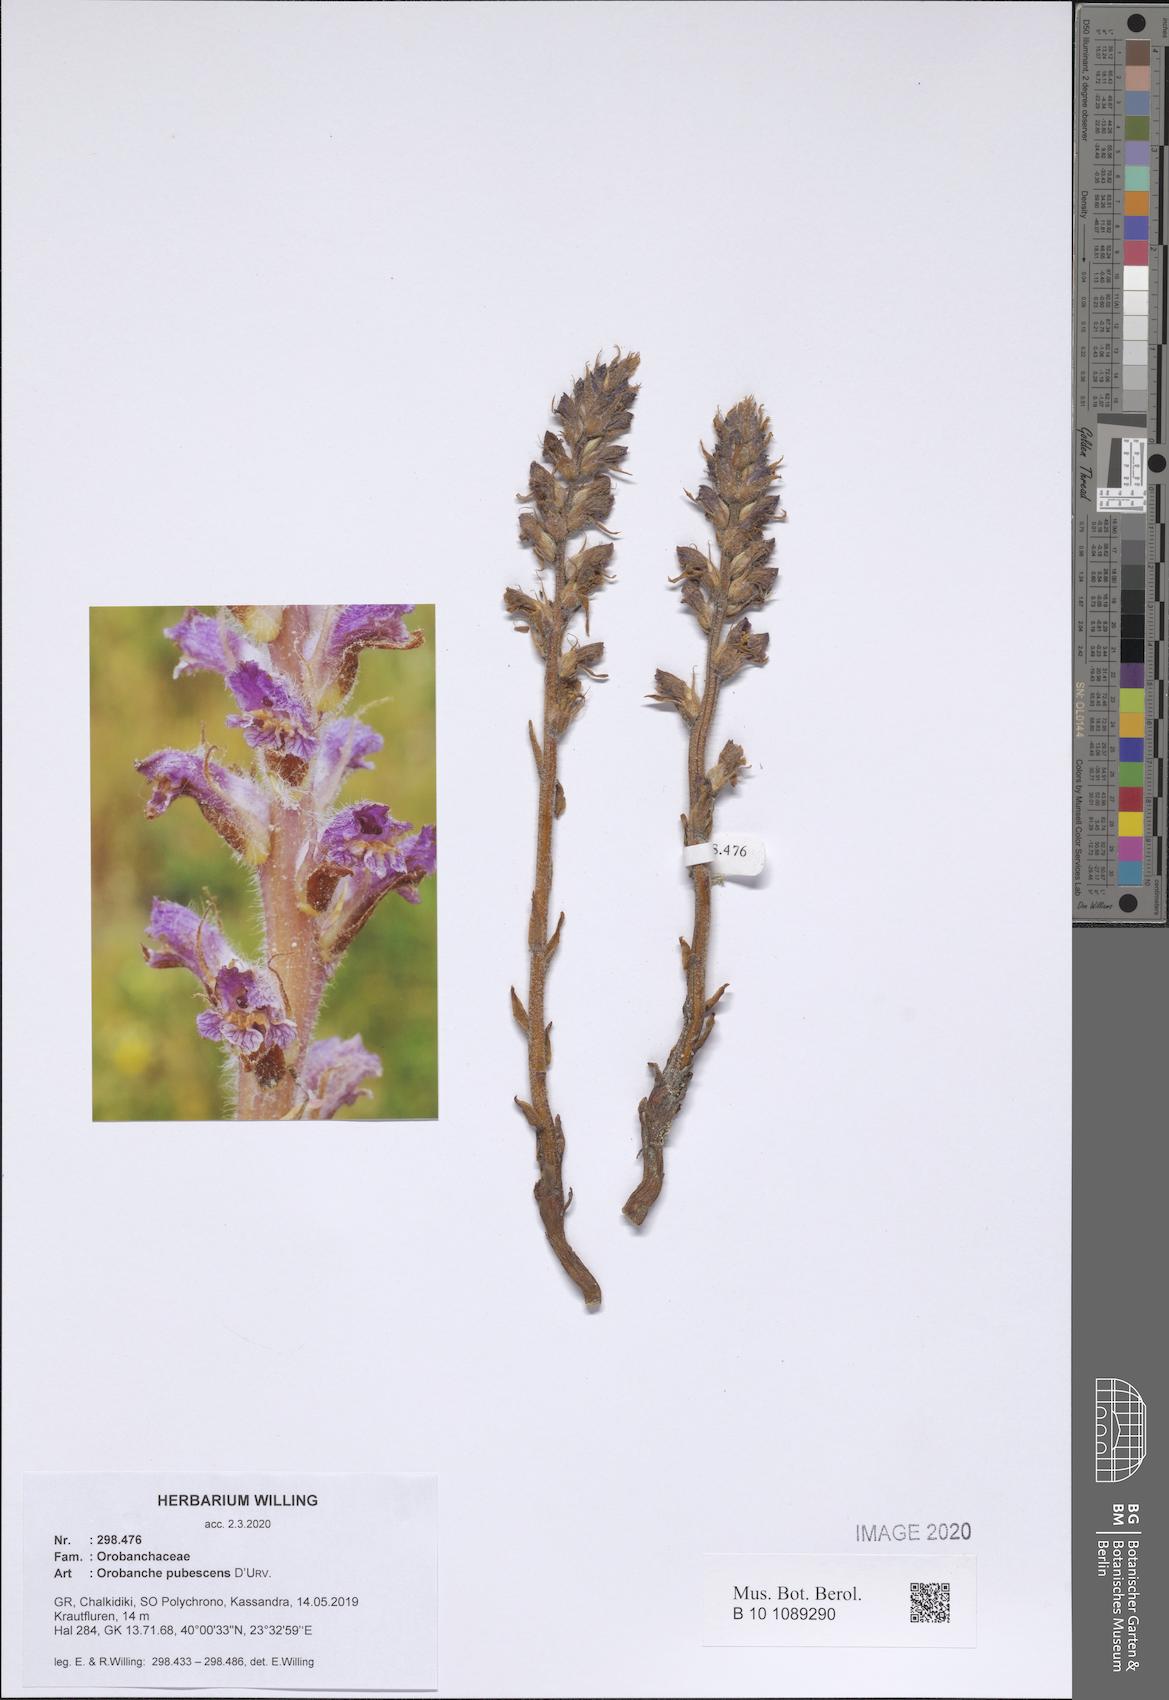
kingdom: Plantae
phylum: Tracheophyta
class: Magnoliopsida
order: Lamiales
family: Orobanchaceae
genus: Orobanche
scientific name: Orobanche pubescens
